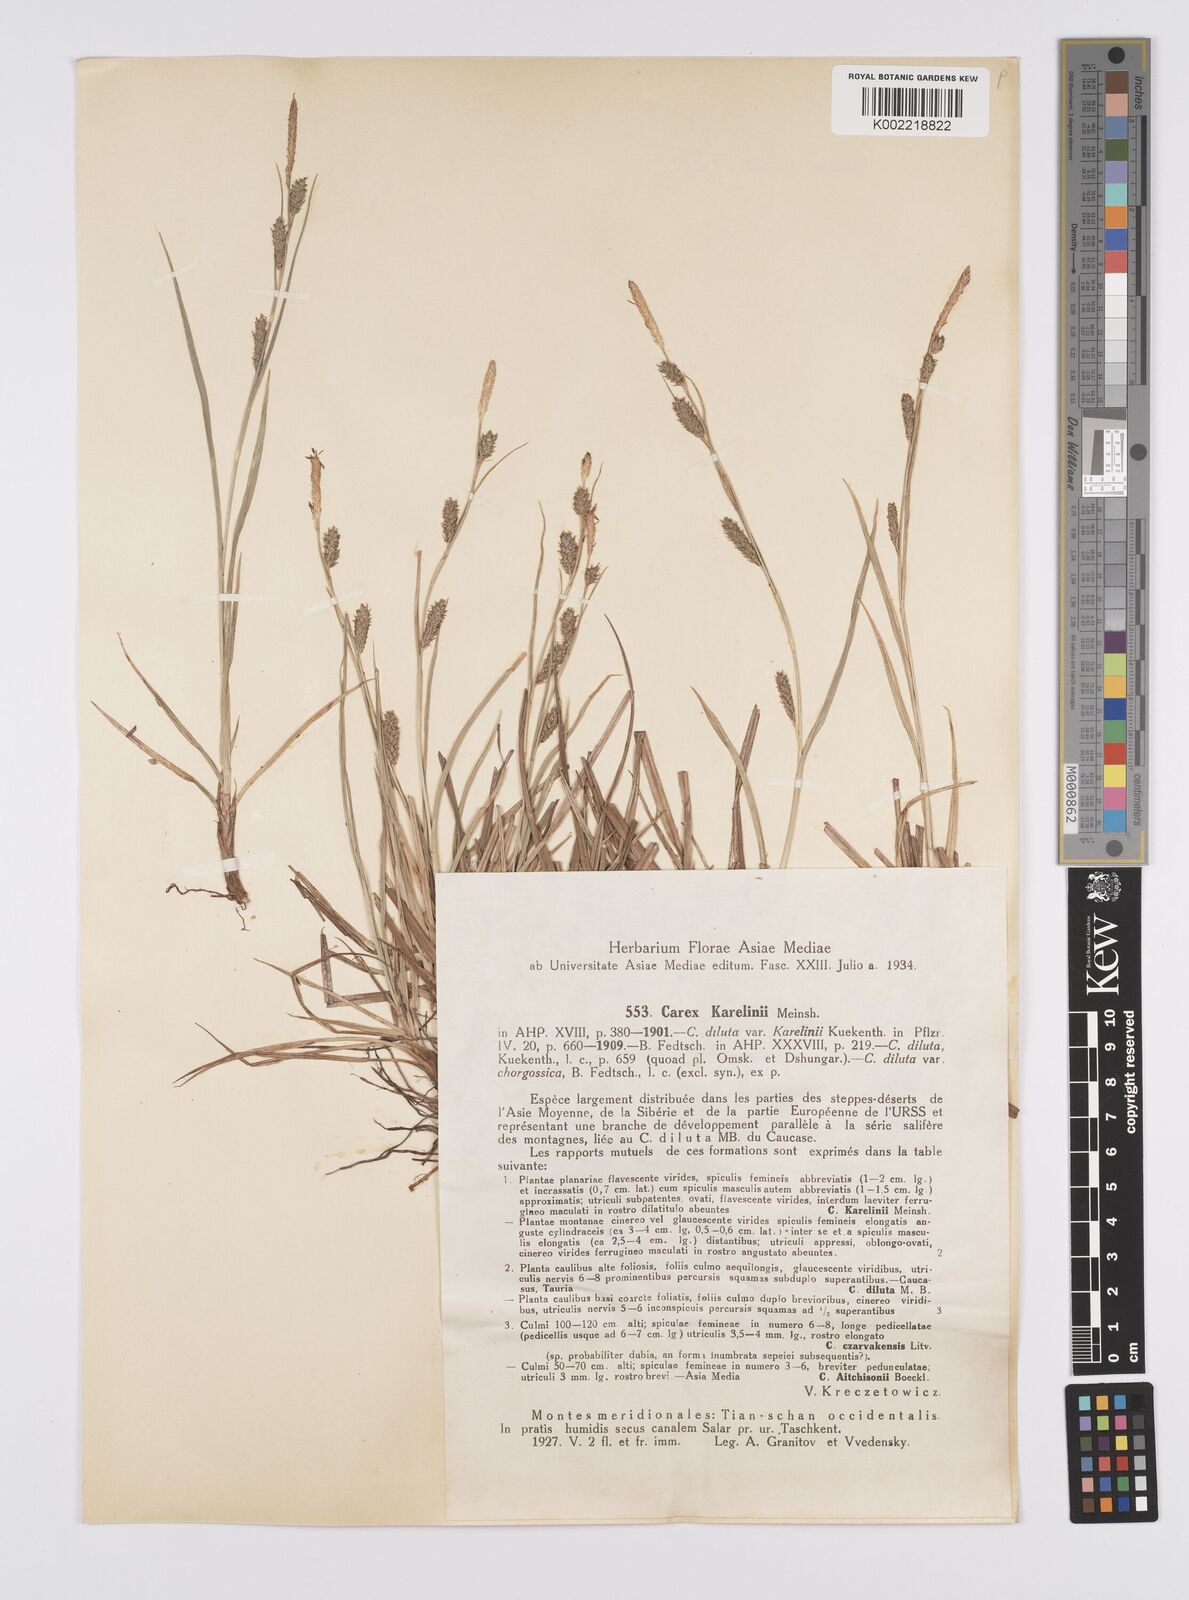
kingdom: Plantae
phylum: Tracheophyta
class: Liliopsida
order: Poales
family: Cyperaceae
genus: Carex
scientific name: Carex diluta
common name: Sedge
